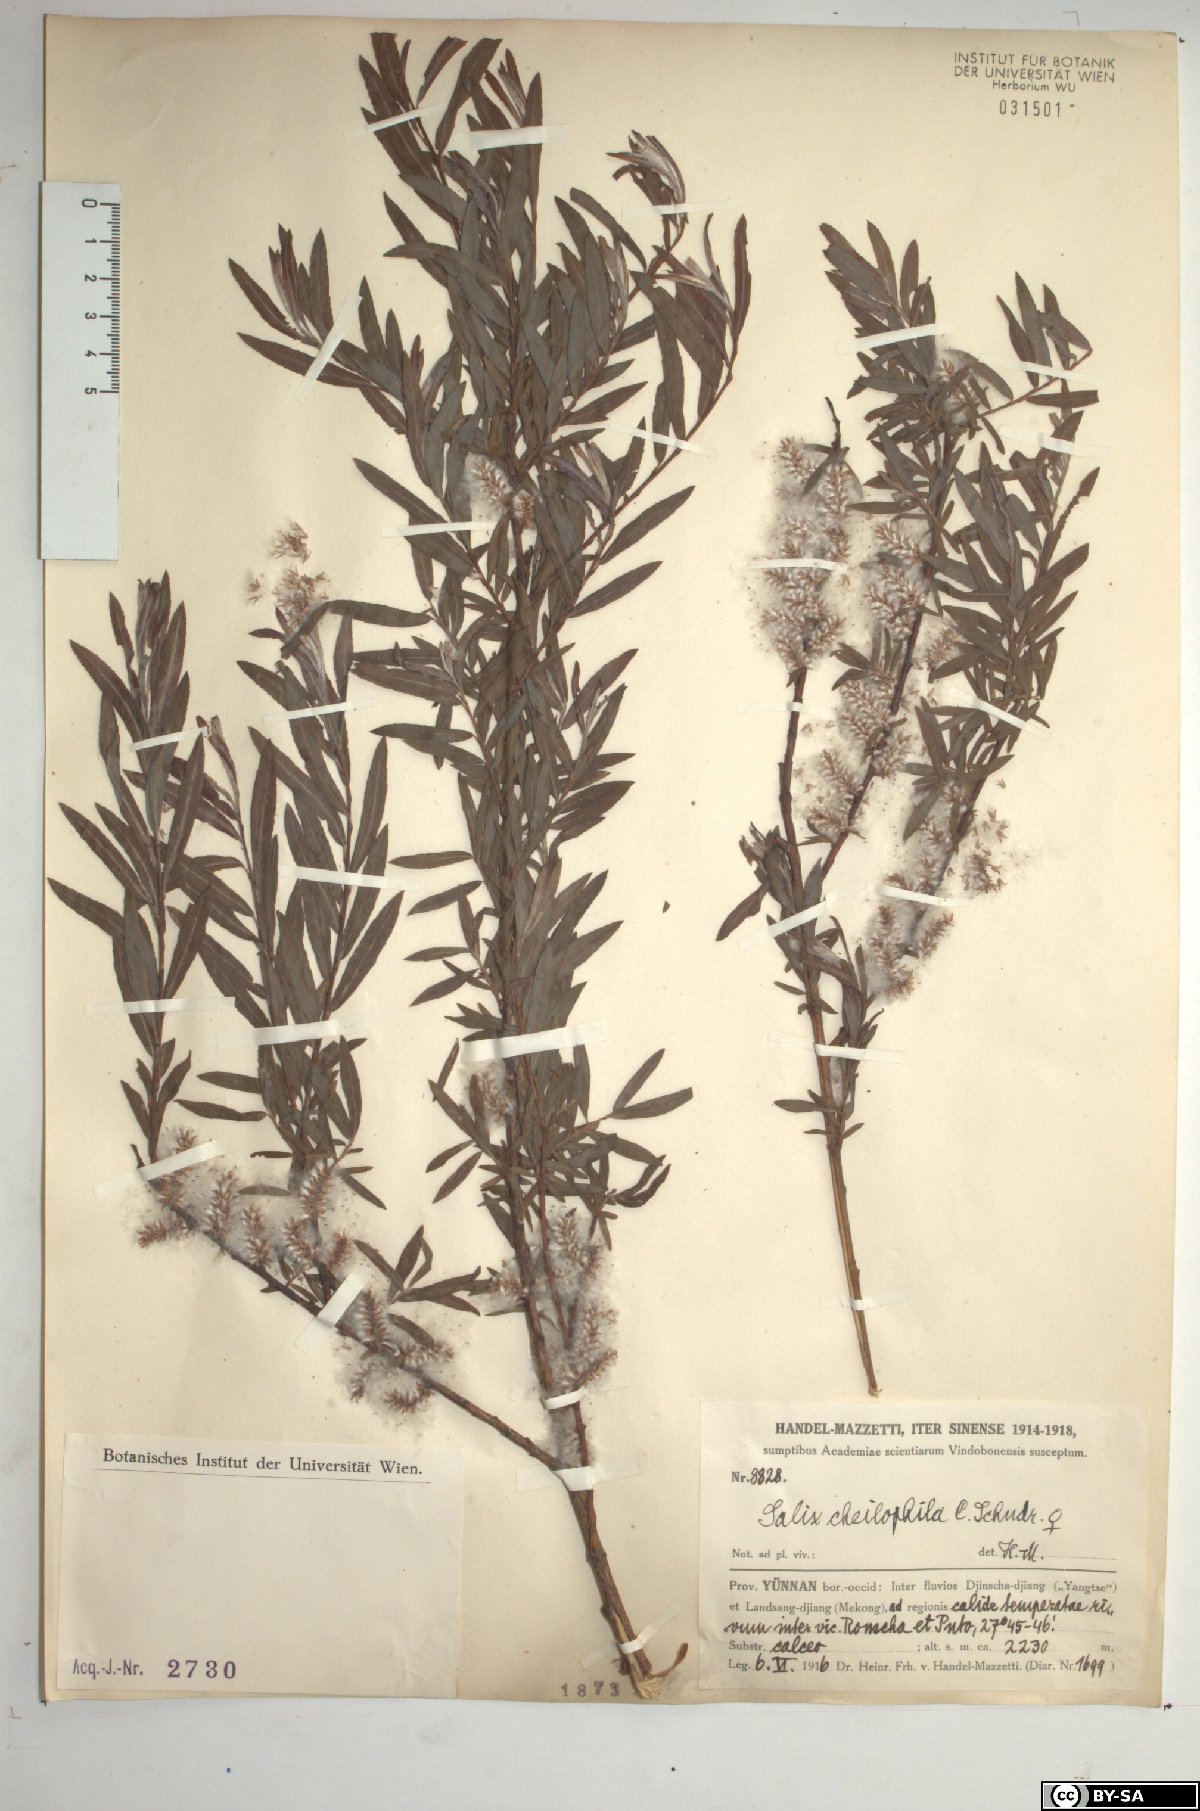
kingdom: Plantae
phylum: Tracheophyta
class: Magnoliopsida
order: Malpighiales
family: Salicaceae
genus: Salix
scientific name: Salix cheilophila
